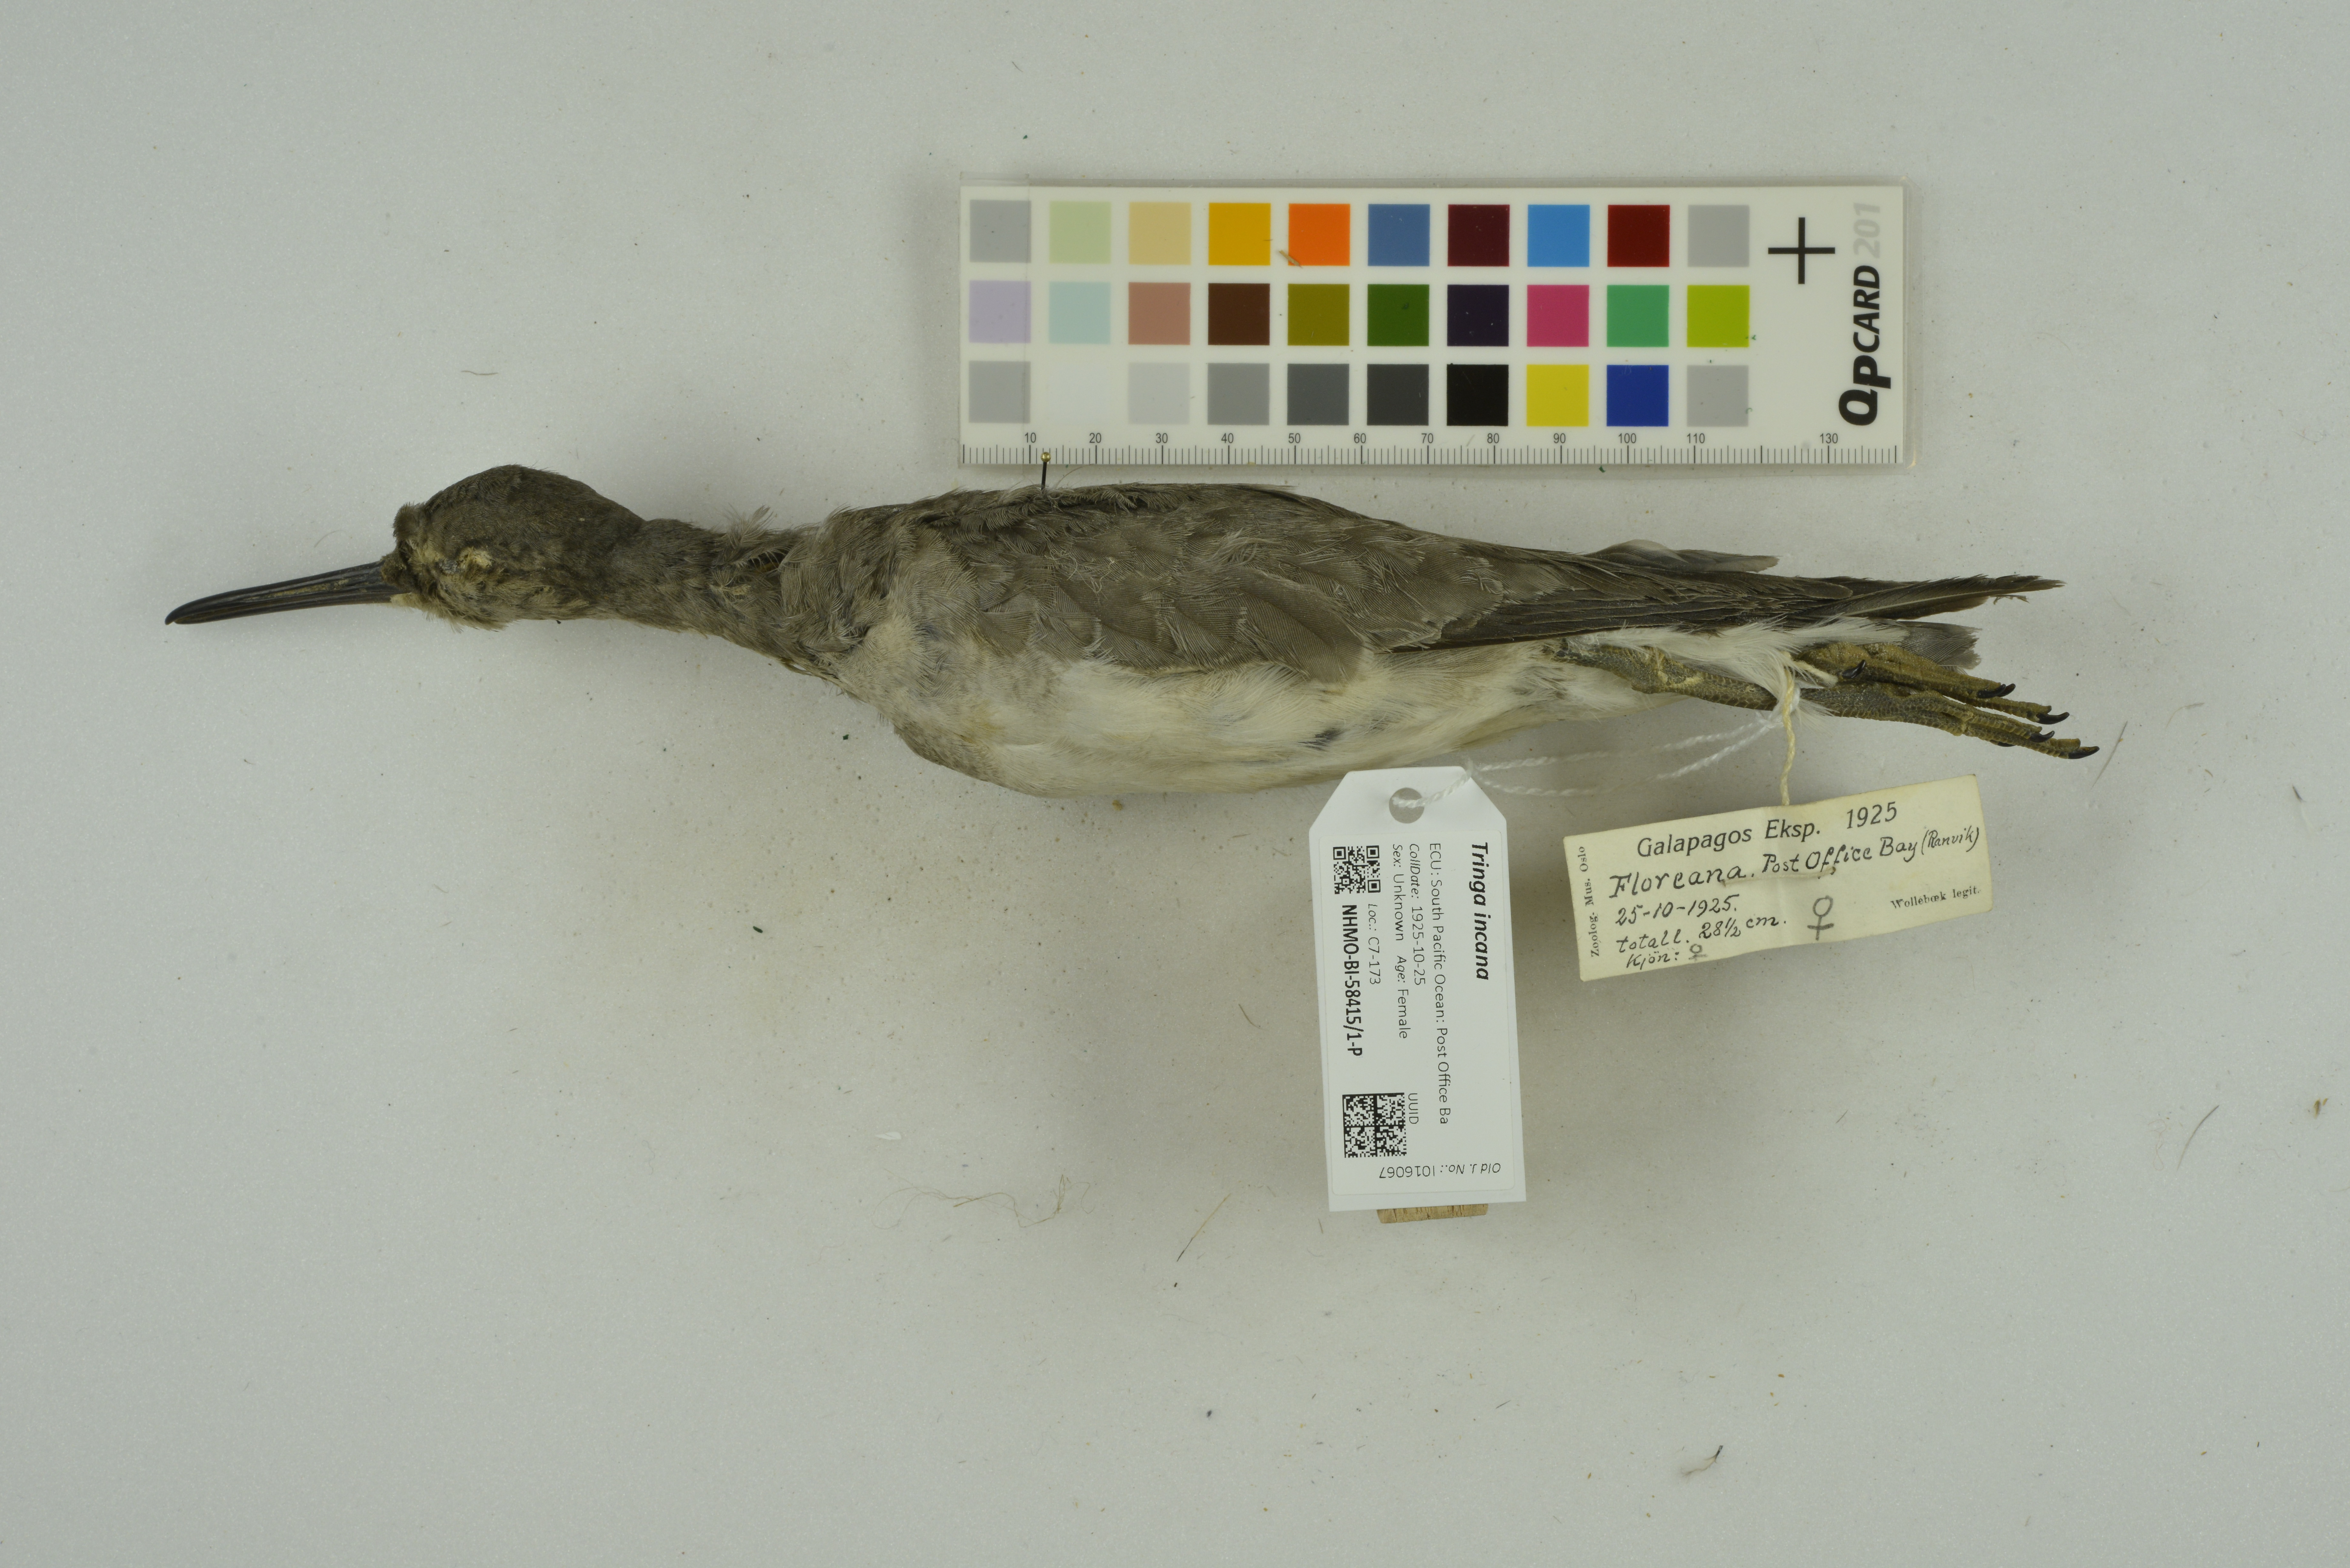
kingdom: Animalia
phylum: Chordata
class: Aves
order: Charadriiformes
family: Scolopacidae
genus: Tringa
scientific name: Tringa incana
